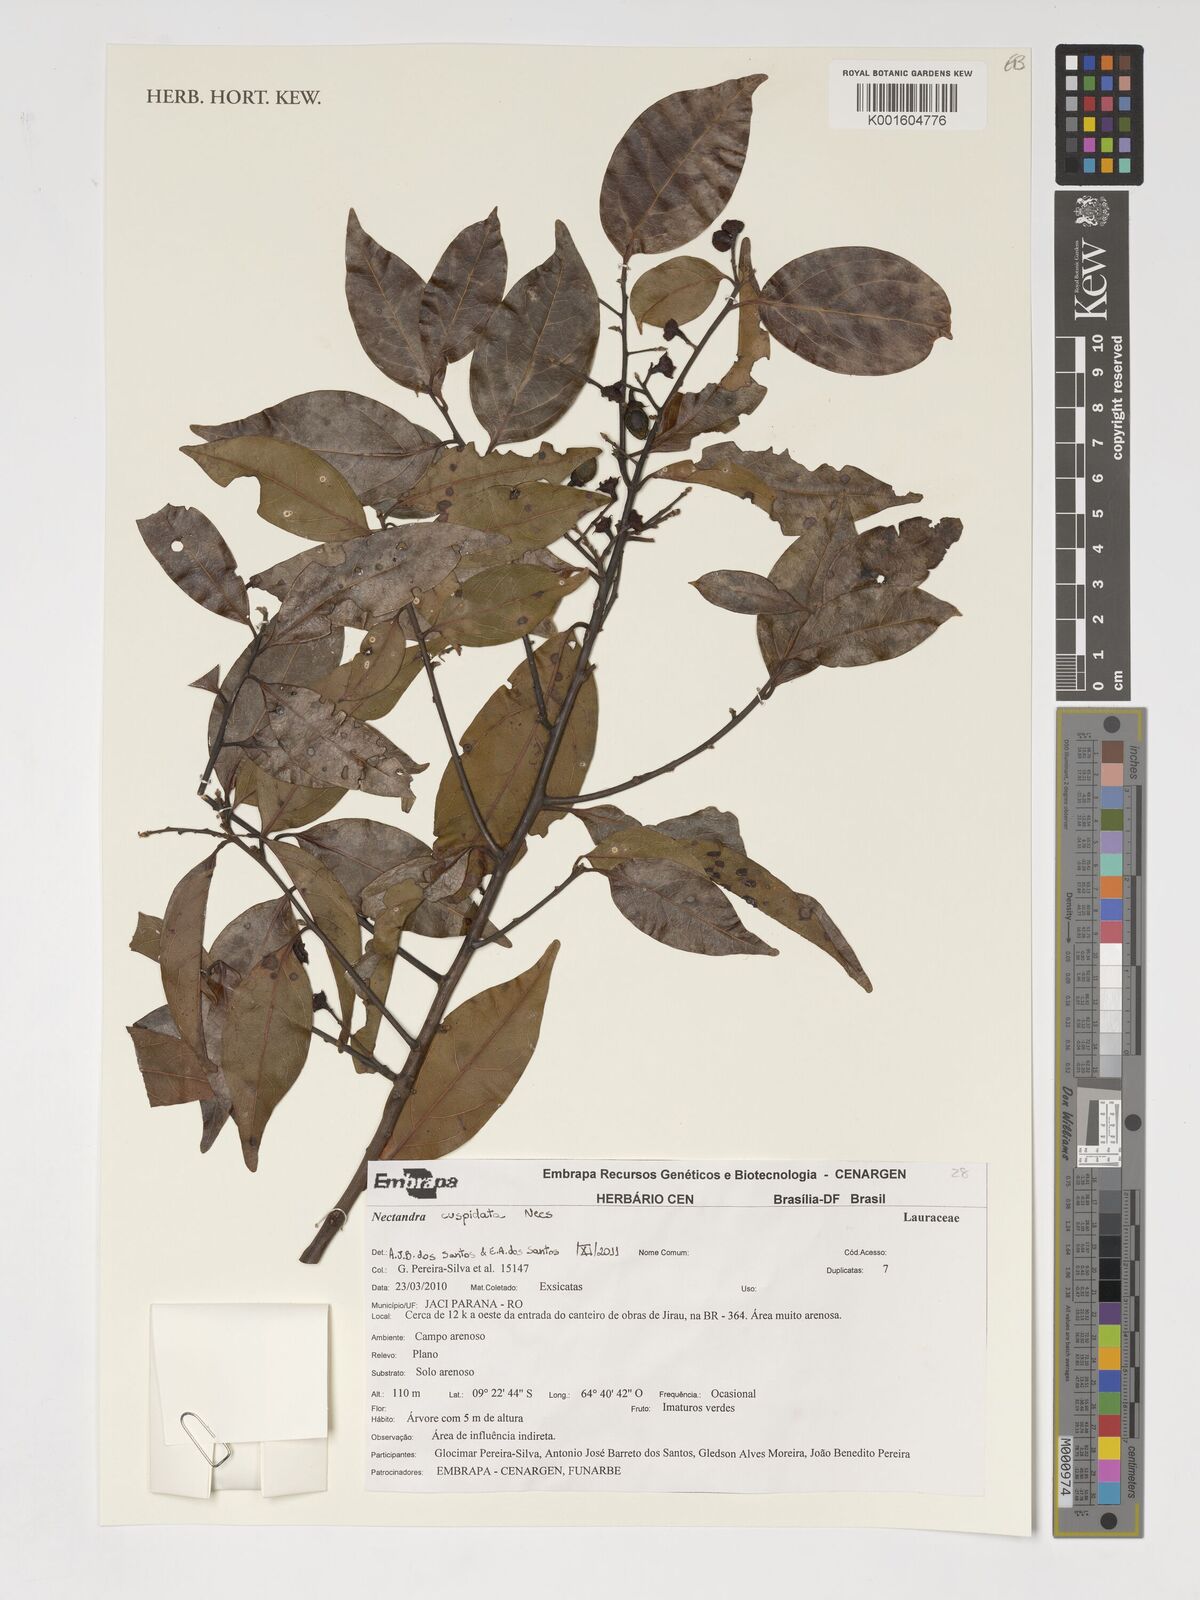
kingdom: Plantae
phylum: Tracheophyta
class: Magnoliopsida
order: Laurales
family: Lauraceae
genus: Nectandra
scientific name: Nectandra cuspidata
